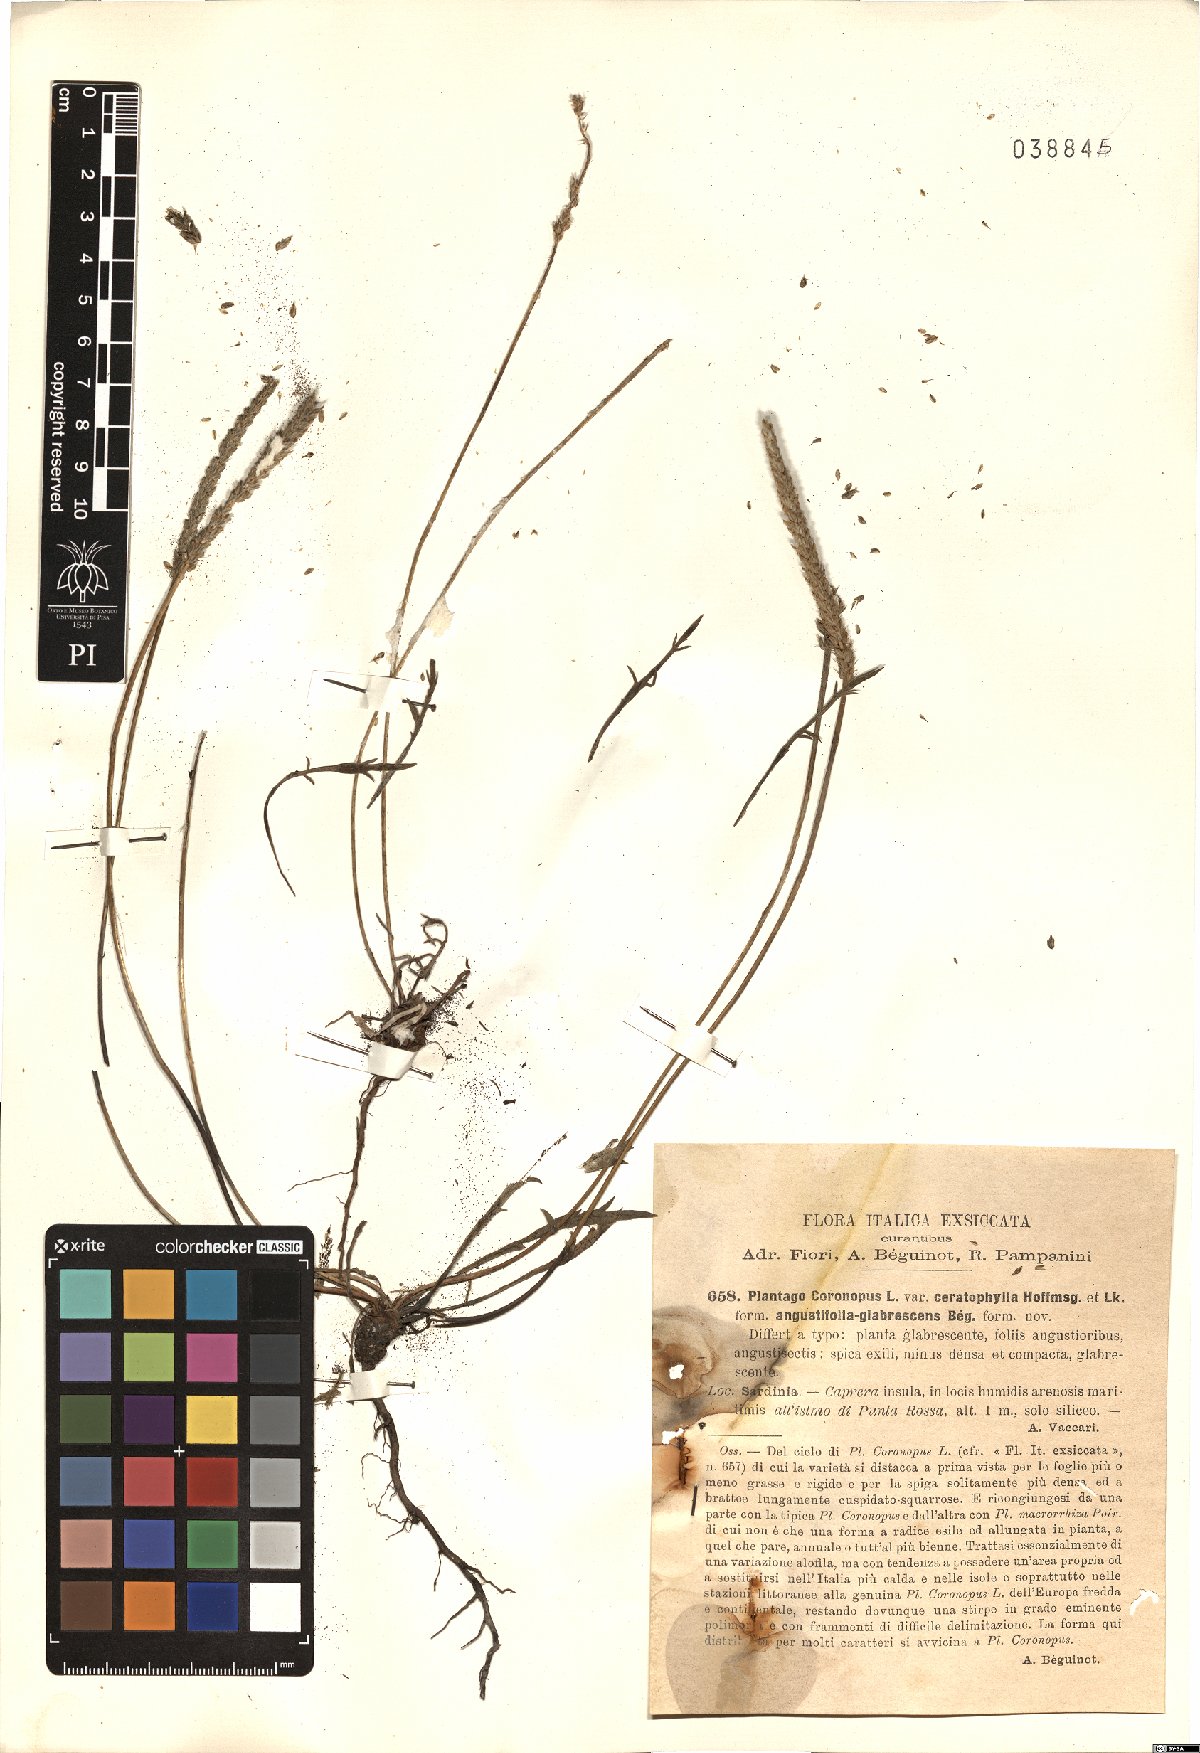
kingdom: Plantae
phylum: Tracheophyta
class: Magnoliopsida
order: Lamiales
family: Plantaginaceae
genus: Plantago
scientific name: Plantago coronopus
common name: Buck's-horn plantain
